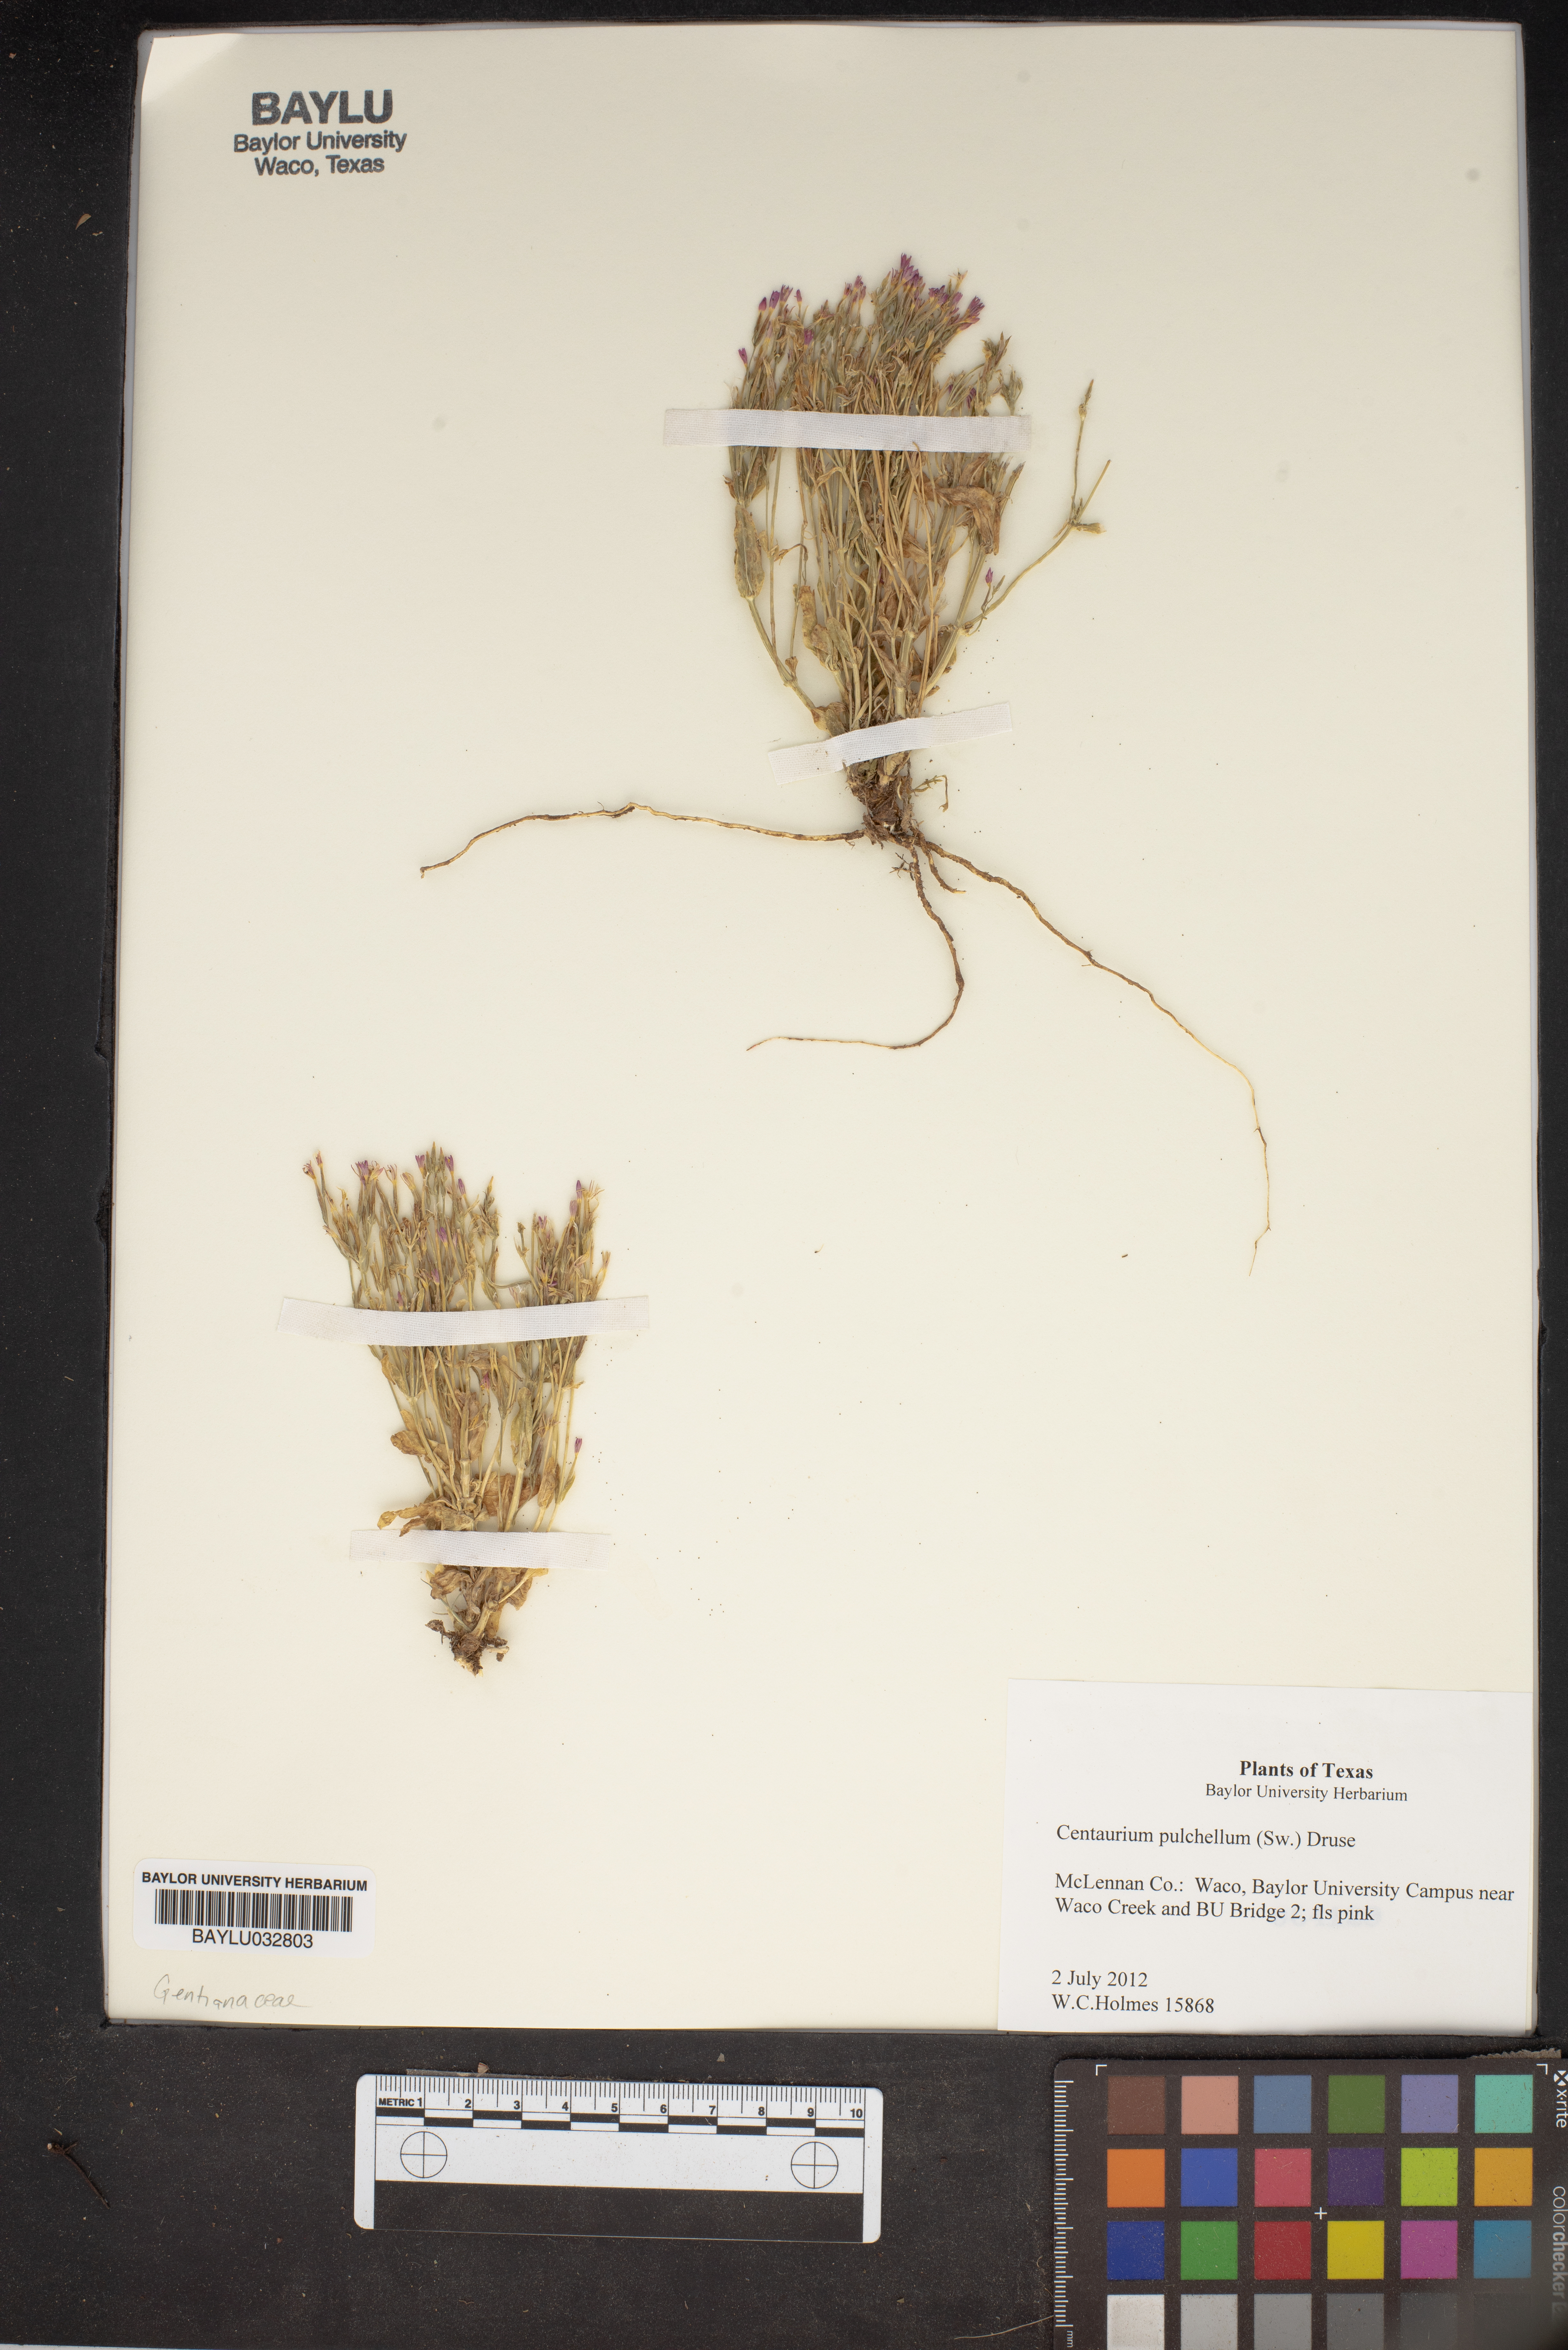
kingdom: Plantae
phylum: Tracheophyta
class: Magnoliopsida
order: Gentianales
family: Gentianaceae
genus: Centaurium
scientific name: Centaurium pulchellum
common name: Lesser centaury
